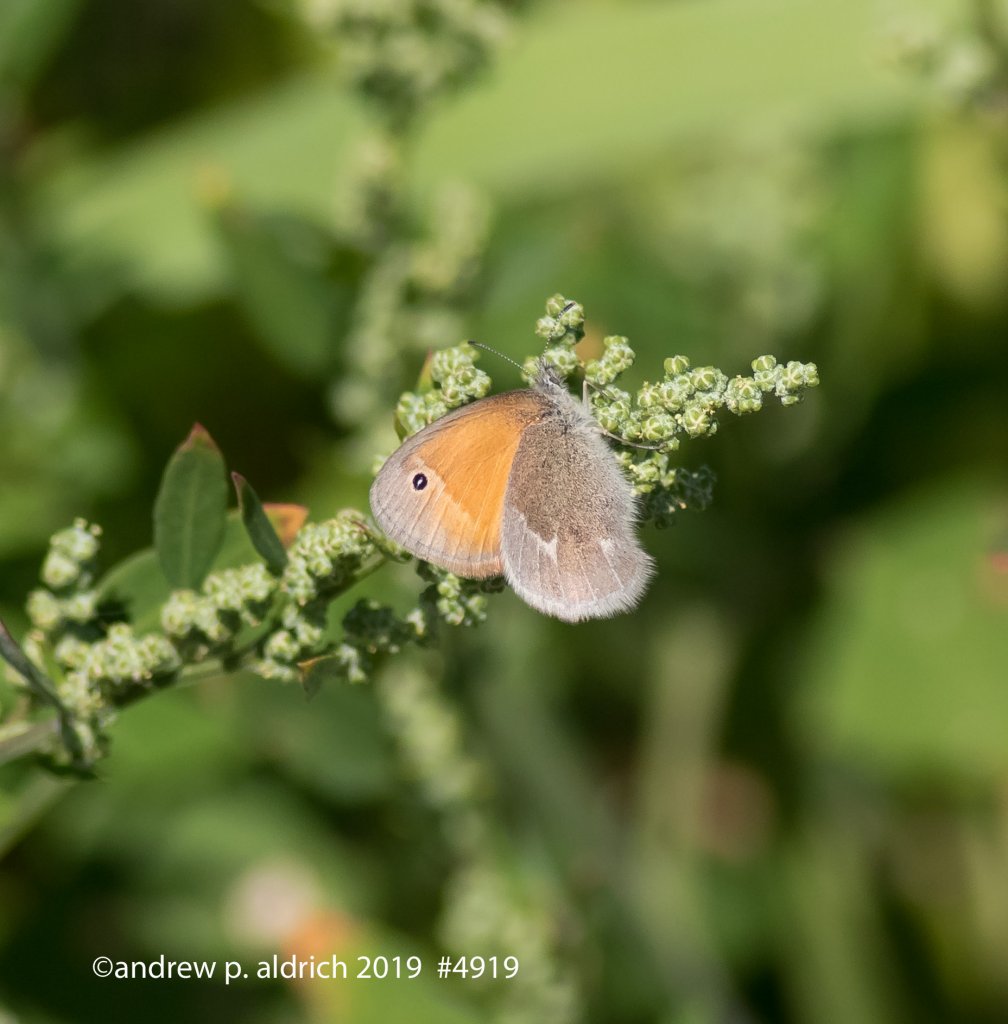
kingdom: Animalia
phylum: Arthropoda
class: Insecta
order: Lepidoptera
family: Nymphalidae
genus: Coenonympha
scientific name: Coenonympha tullia
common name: Large Heath
